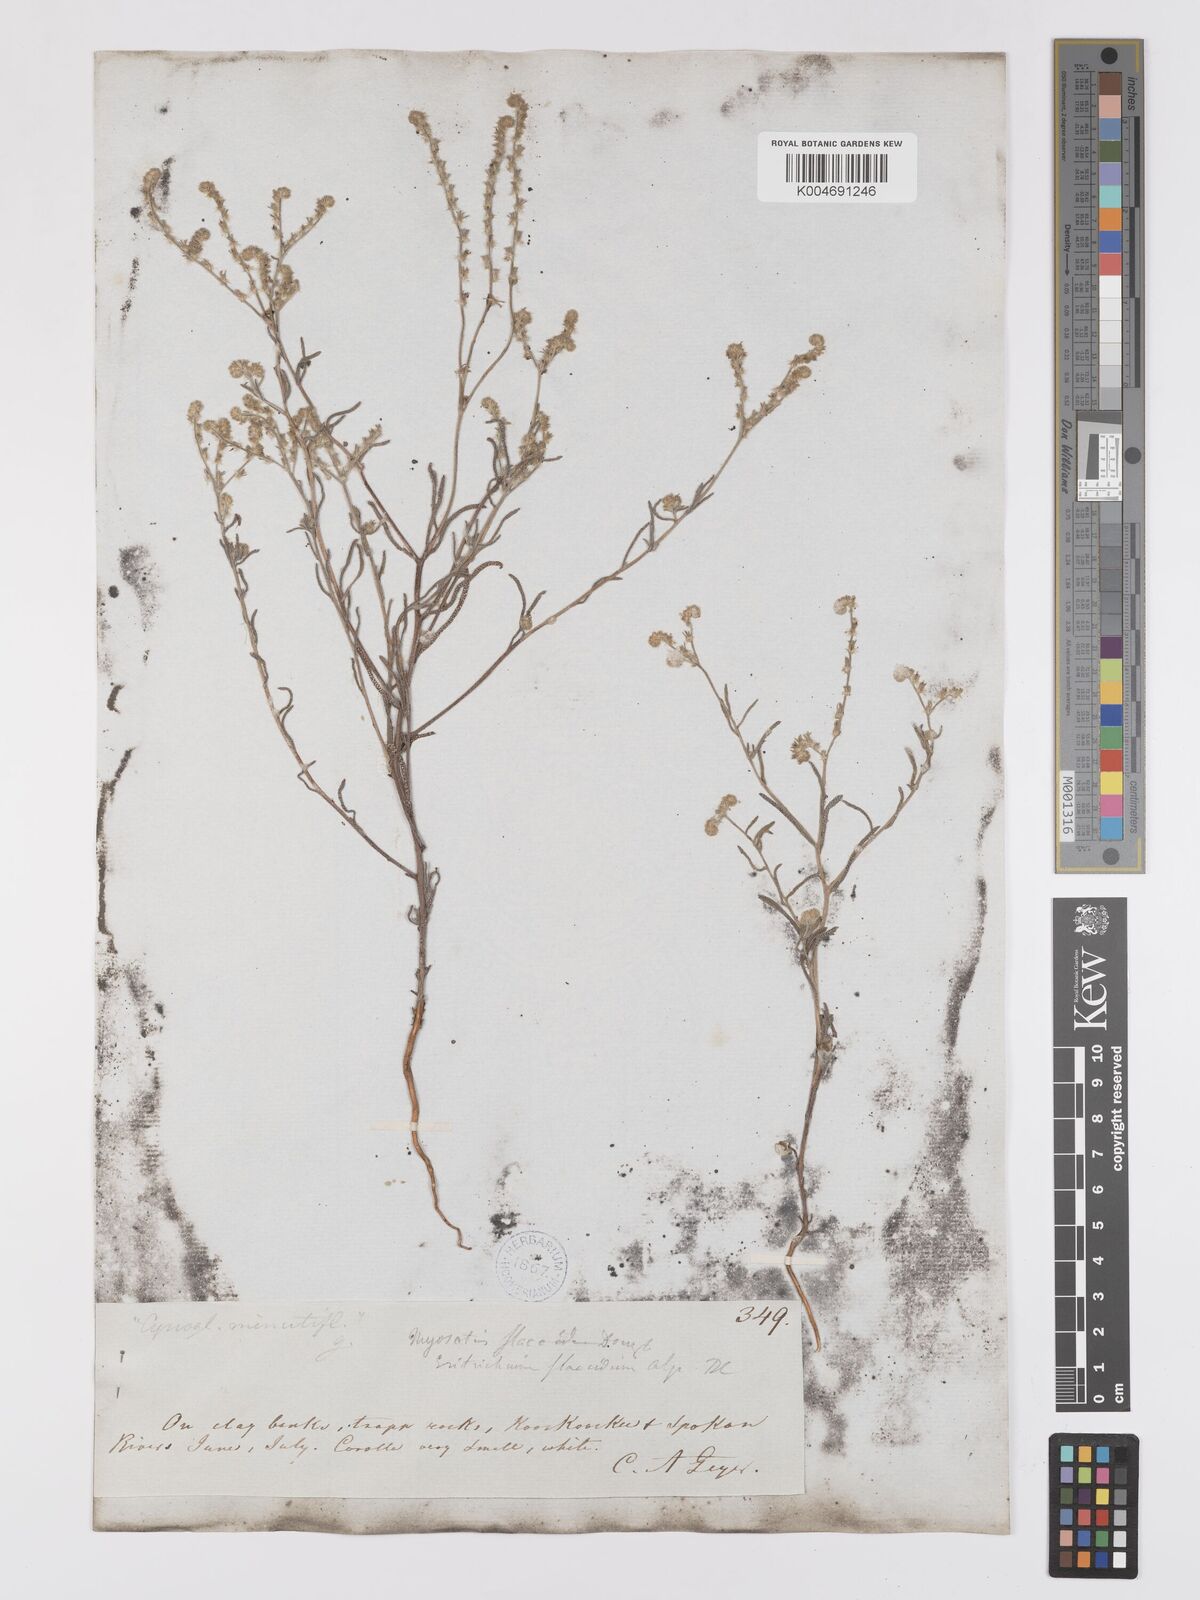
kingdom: Plantae
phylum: Tracheophyta
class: Magnoliopsida
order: Boraginales
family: Boraginaceae
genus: Cryptantha
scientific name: Cryptantha flaccida
